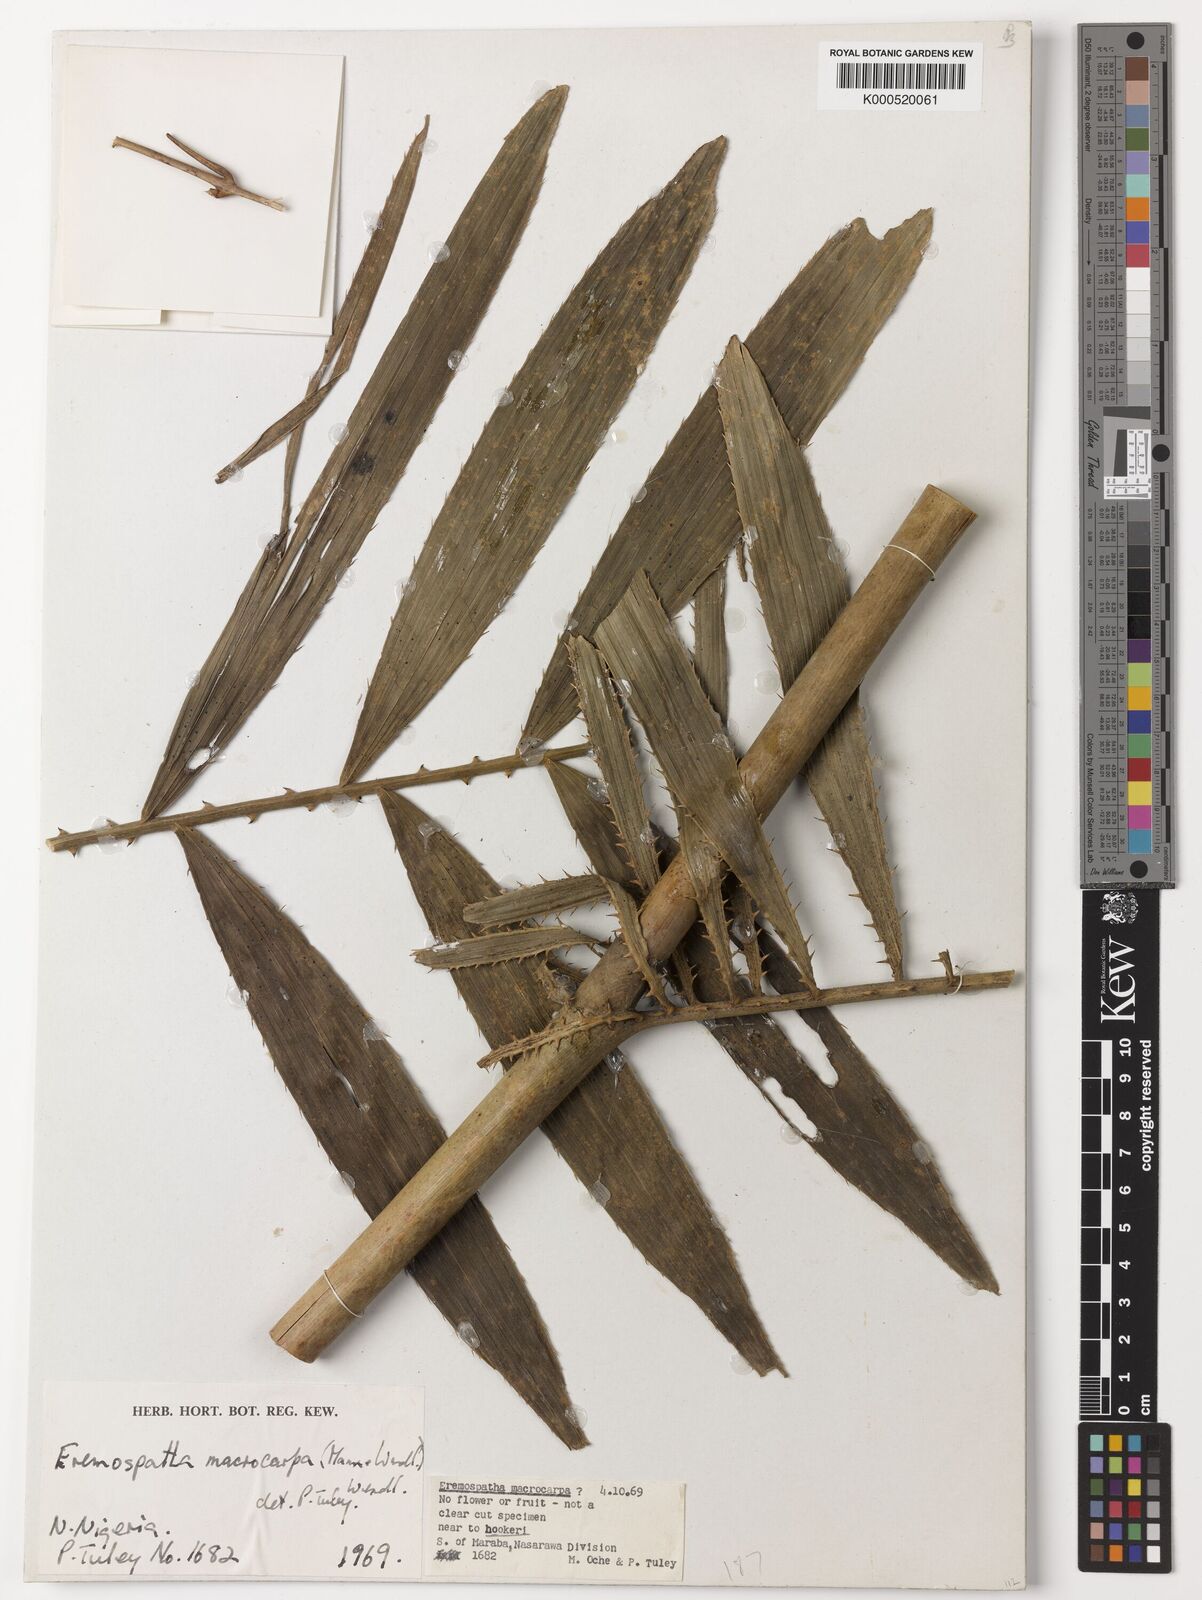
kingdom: Plantae
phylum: Tracheophyta
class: Liliopsida
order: Arecales
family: Arecaceae
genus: Eremospatha
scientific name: Eremospatha
